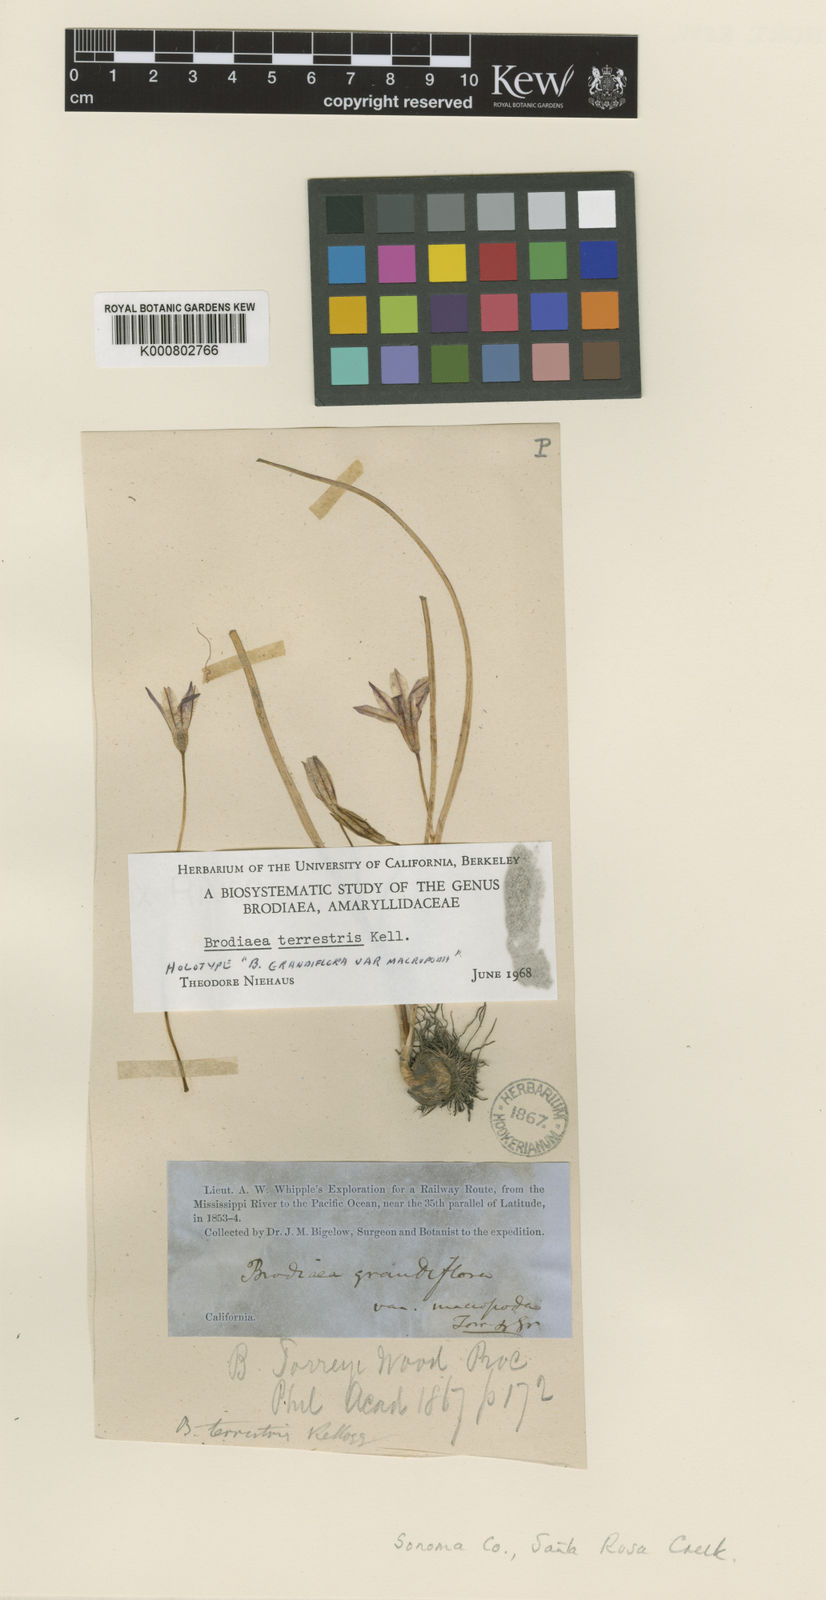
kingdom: Plantae
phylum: Tracheophyta
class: Liliopsida
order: Asparagales
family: Asparagaceae
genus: Brodiaea
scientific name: Brodiaea terrestris
